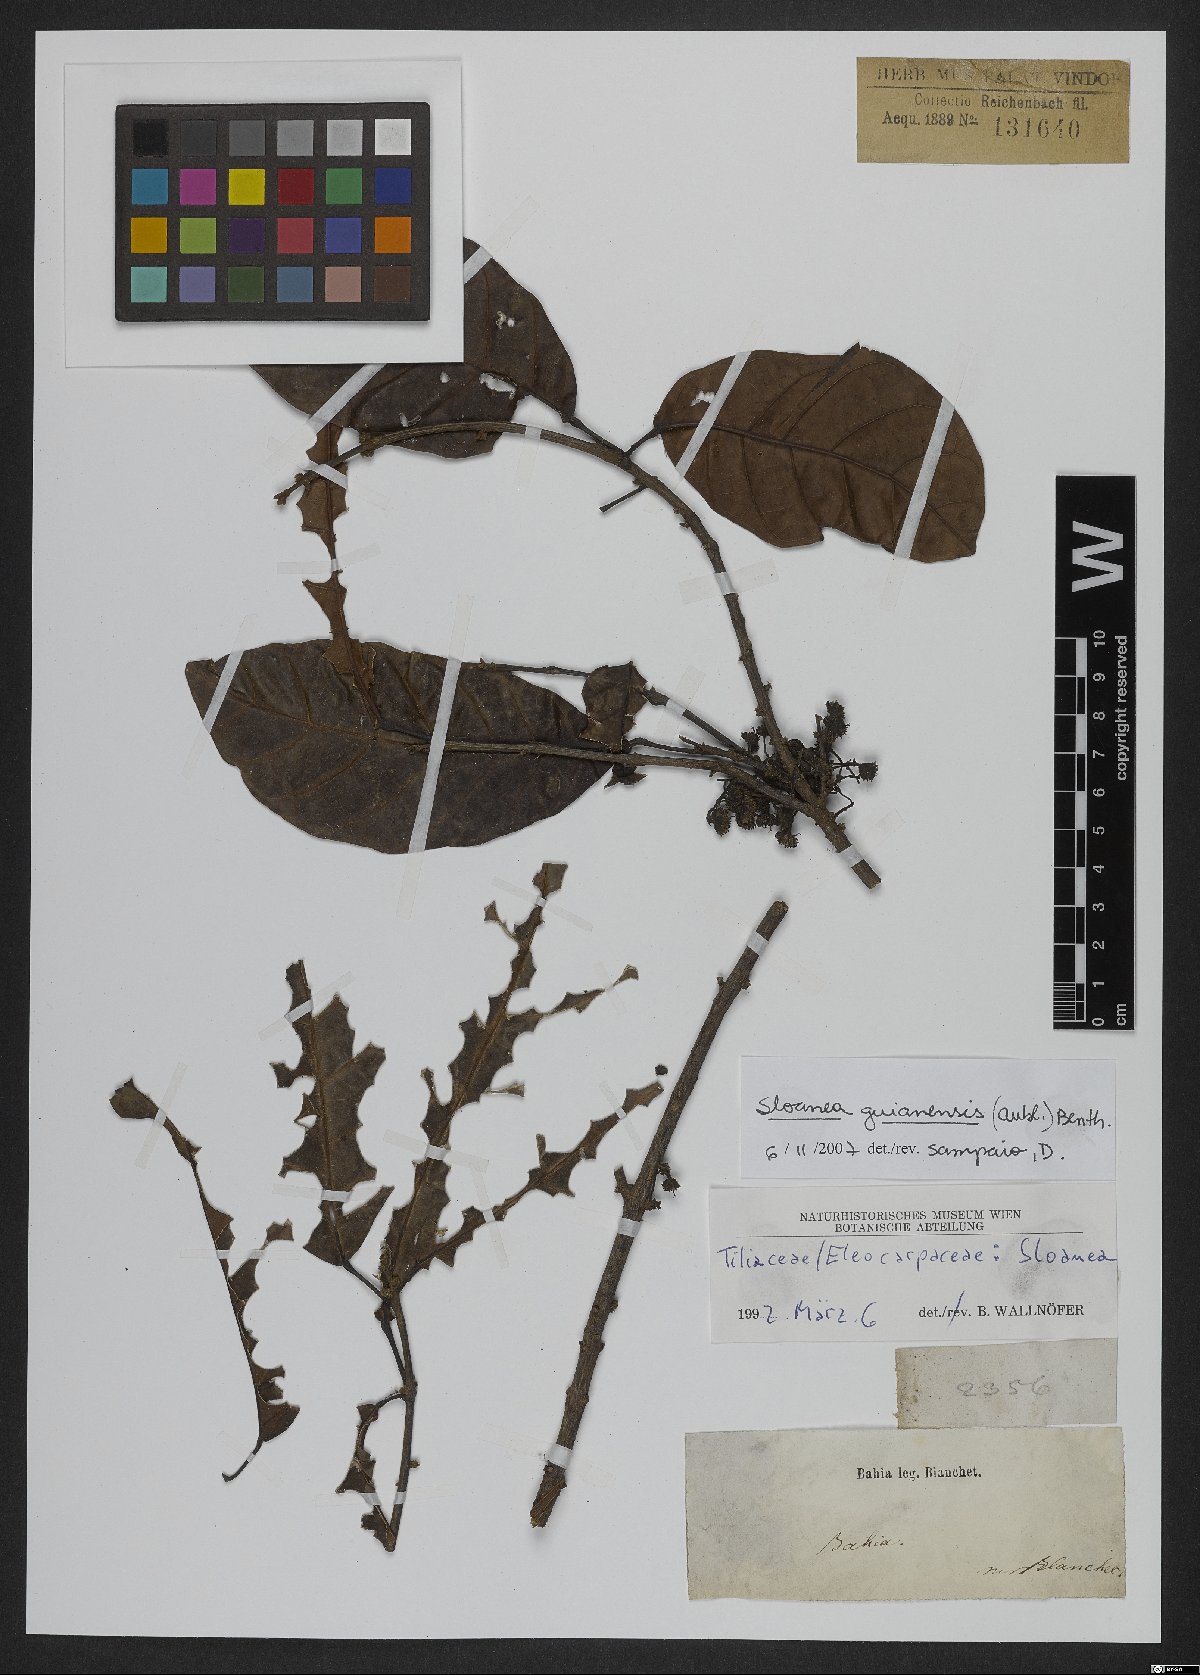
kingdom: Plantae
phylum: Tracheophyta
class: Magnoliopsida
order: Oxalidales
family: Elaeocarpaceae
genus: Sloanea
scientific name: Sloanea guianensis
